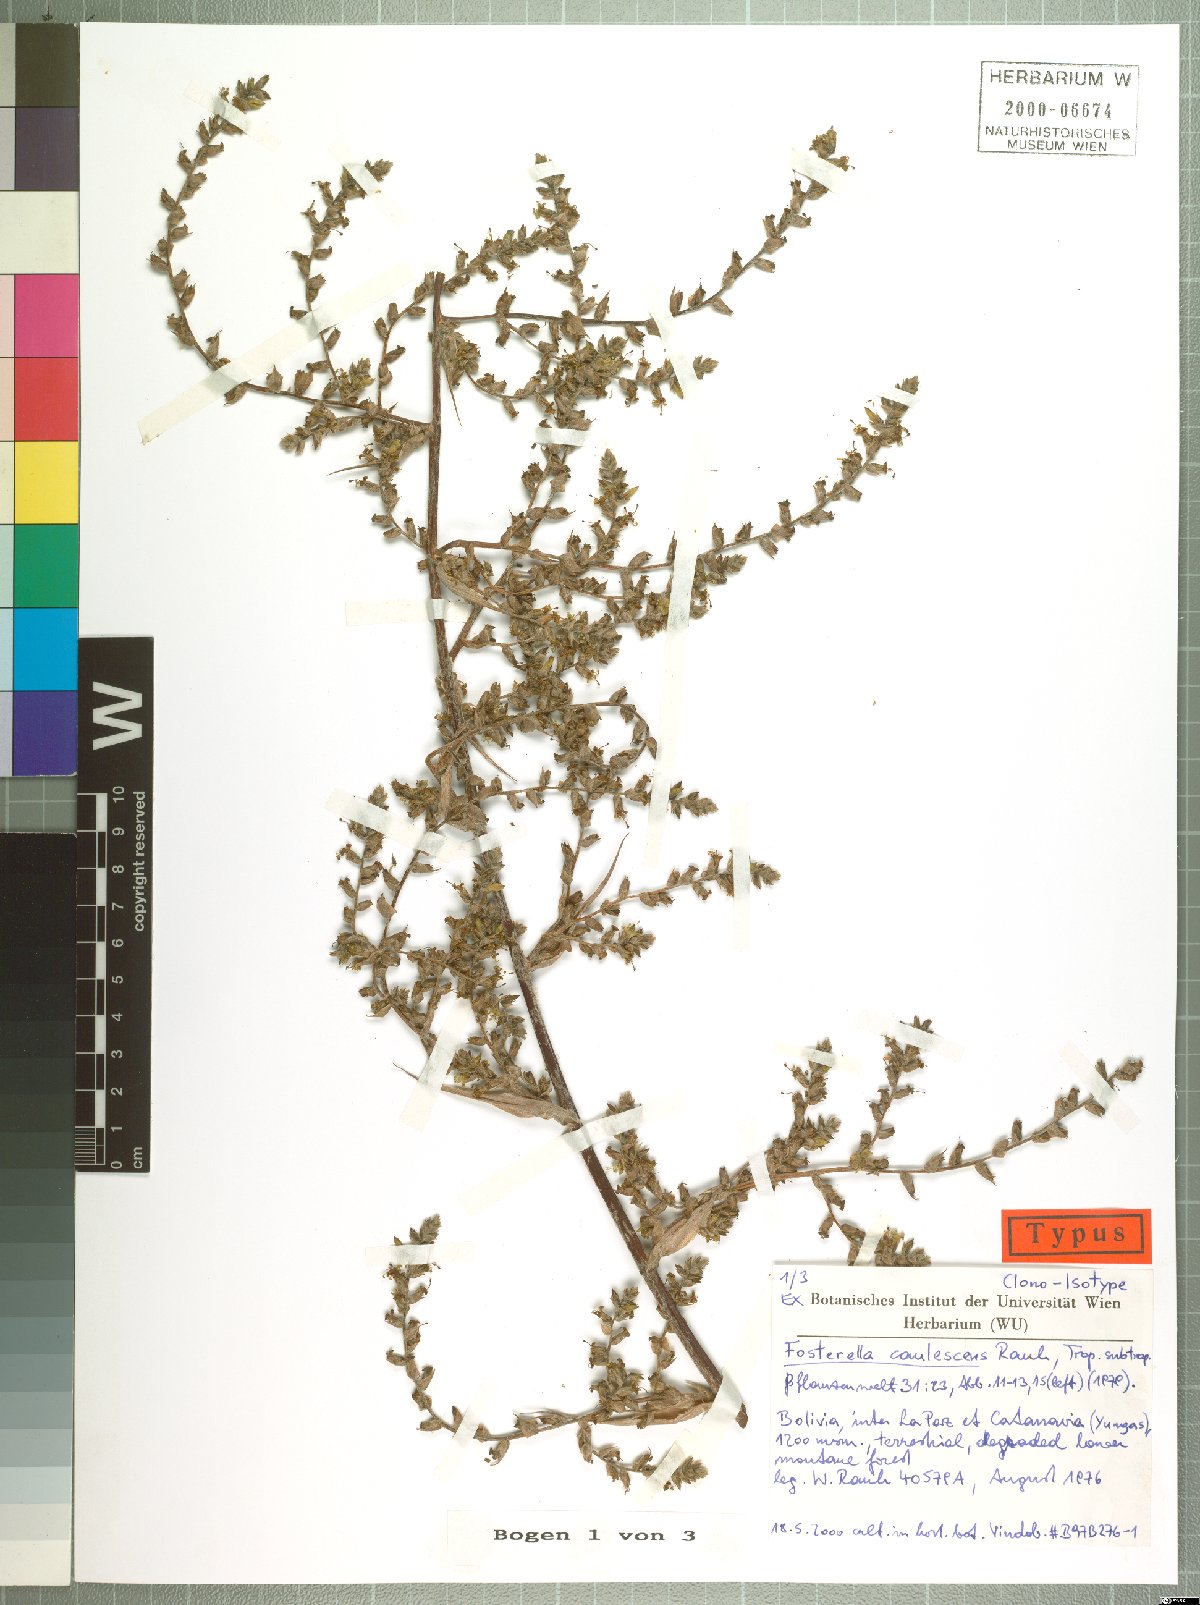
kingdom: Plantae
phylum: Tracheophyta
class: Liliopsida
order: Poales
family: Bromeliaceae
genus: Fosterella
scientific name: Fosterella caulescens
